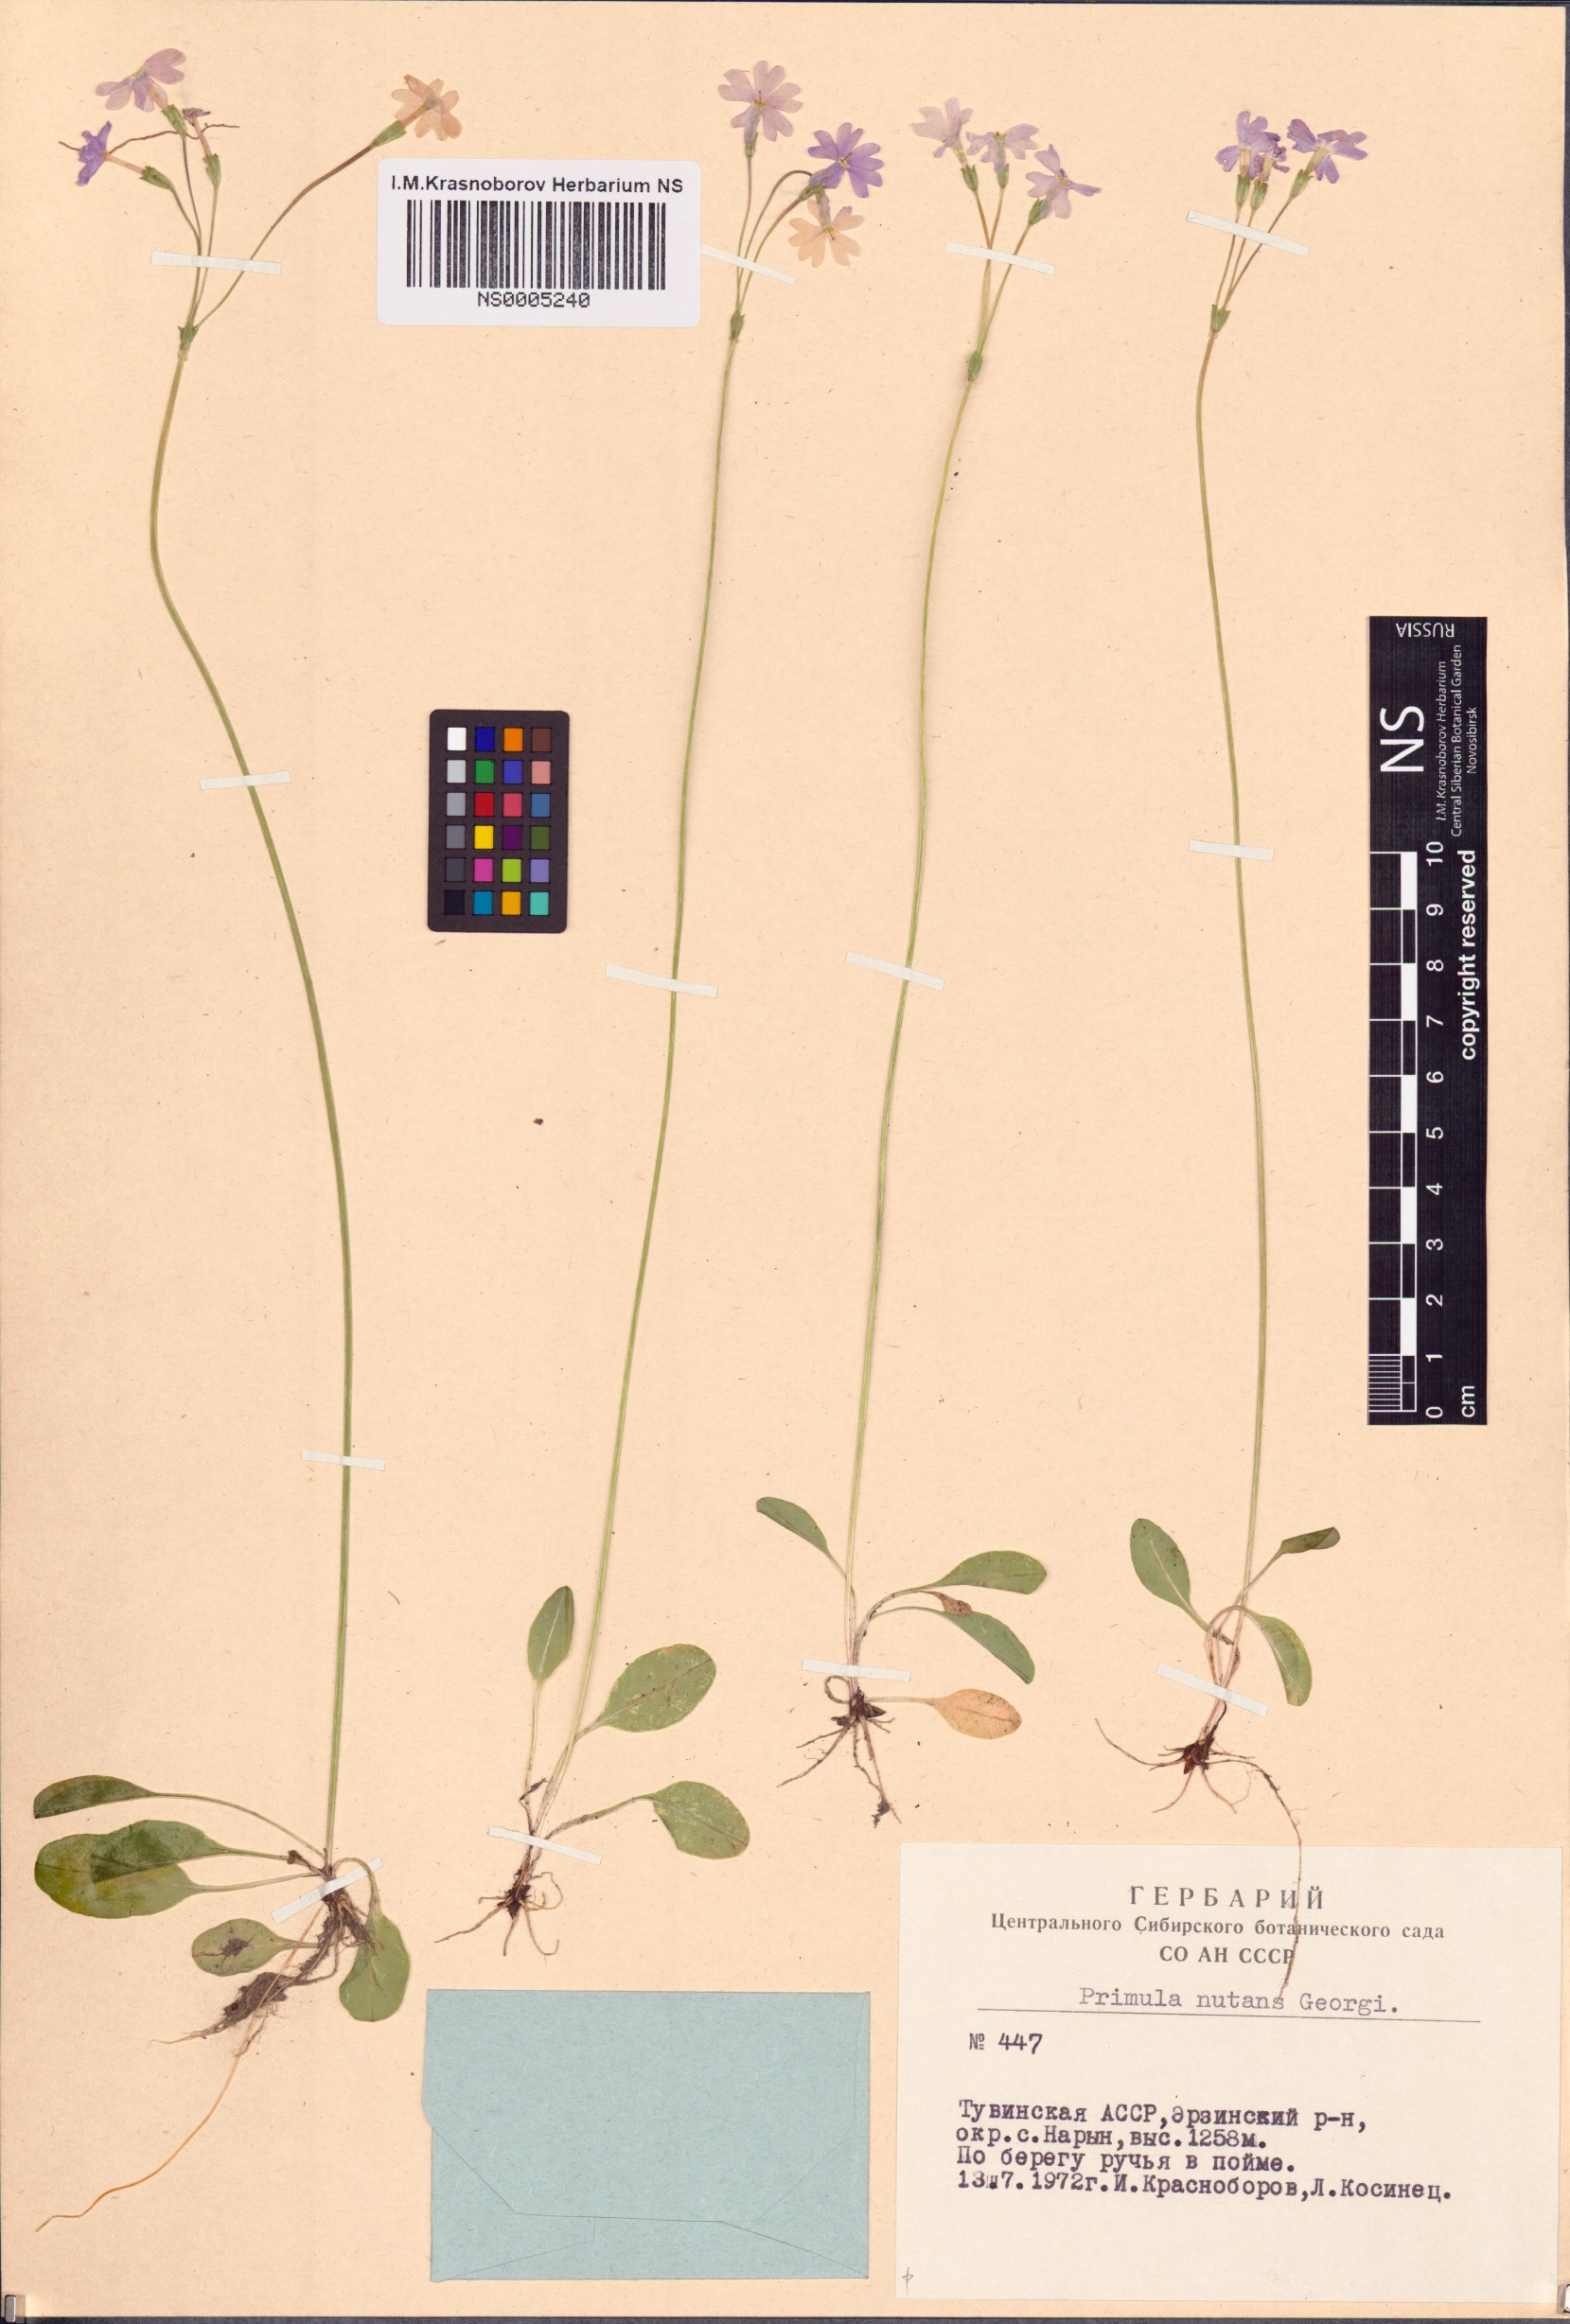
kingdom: Plantae
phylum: Tracheophyta
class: Magnoliopsida
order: Ericales
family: Primulaceae
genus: Primula
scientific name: Primula nutans
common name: Siberian primrose
